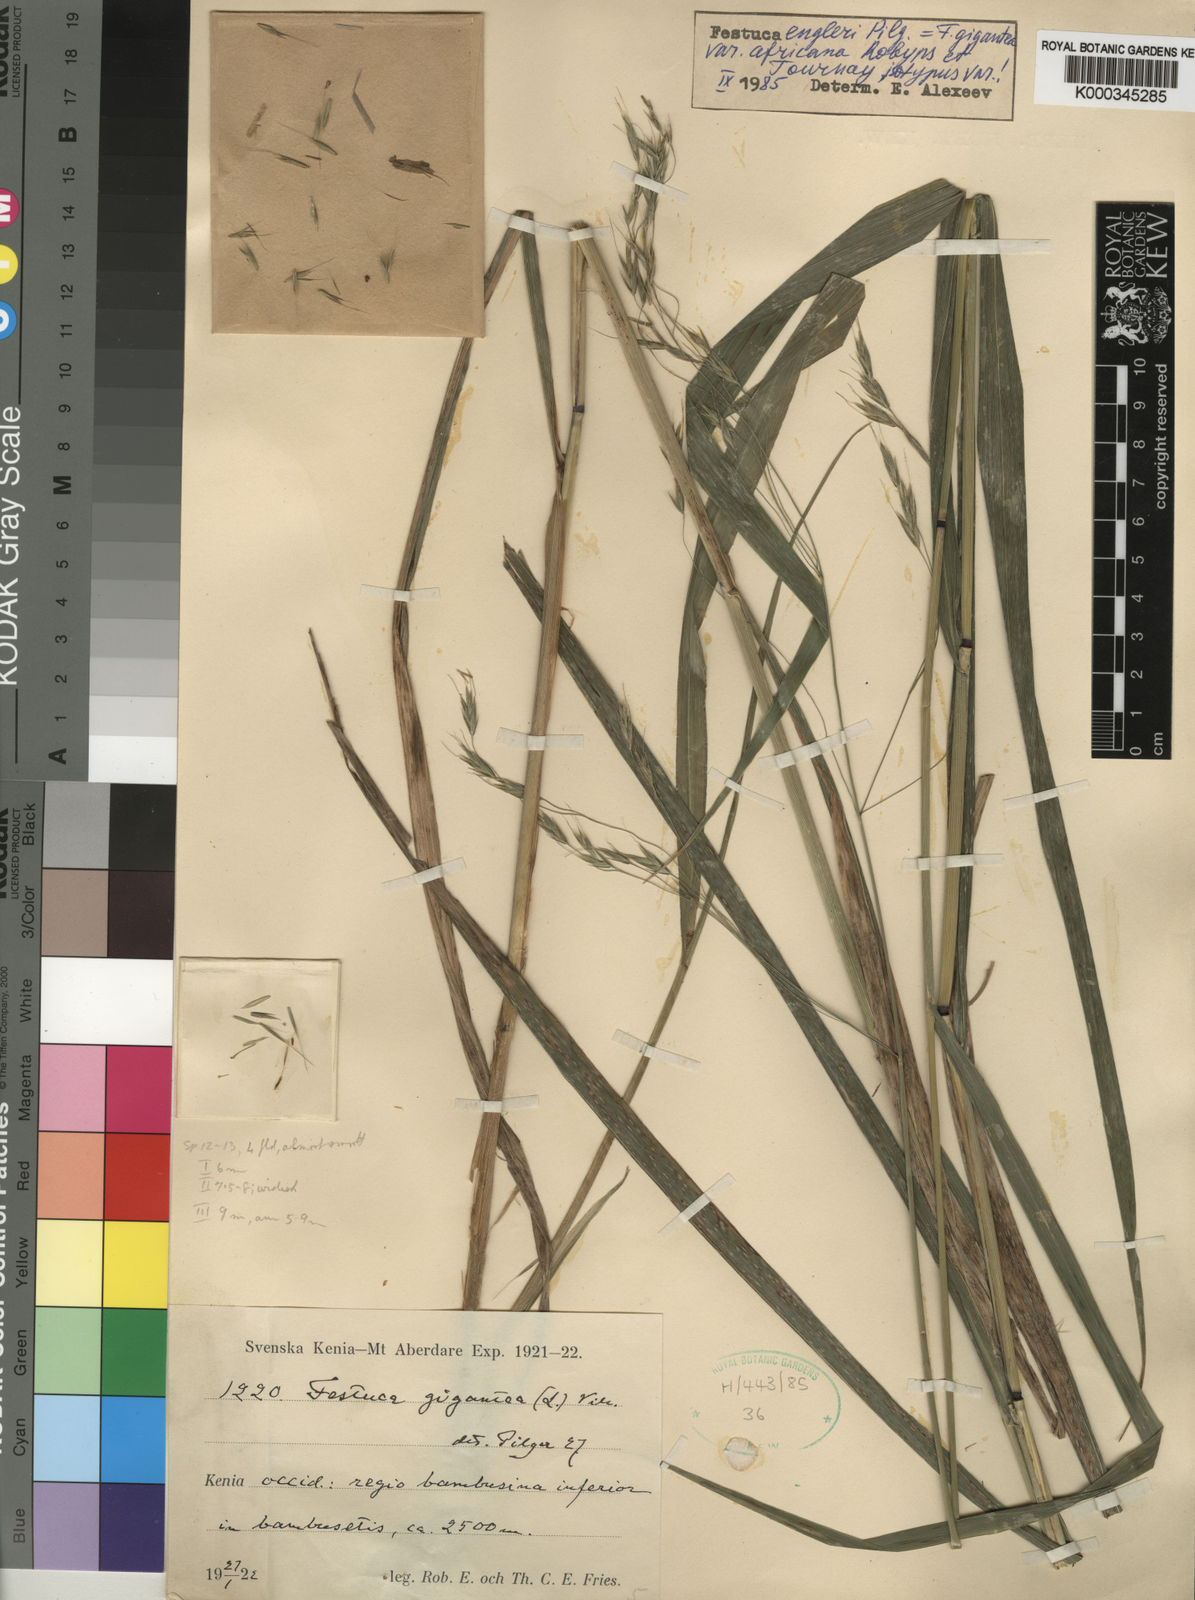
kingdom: Plantae
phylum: Tracheophyta
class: Liliopsida
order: Poales
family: Poaceae
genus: Pseudobromus
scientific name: Pseudobromus engleri
